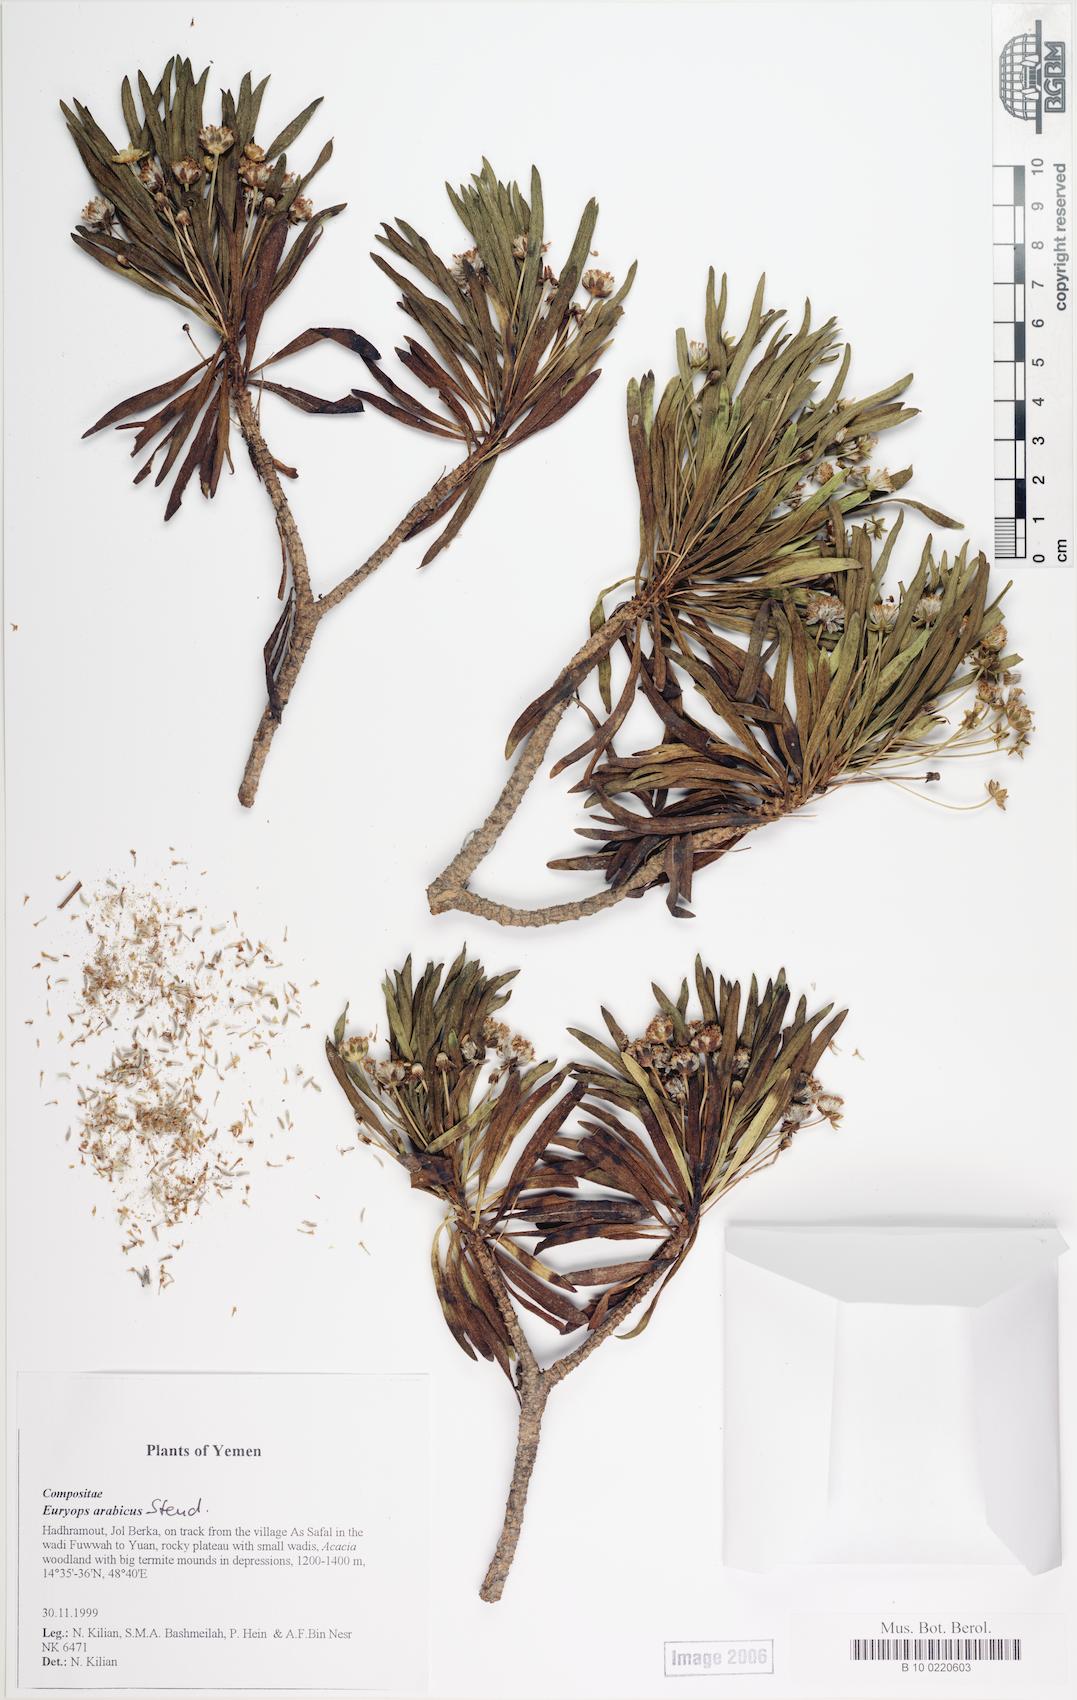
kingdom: Plantae
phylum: Tracheophyta
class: Magnoliopsida
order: Caryophyllales
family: Caryophyllaceae
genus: Stellaria
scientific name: Stellaria apetala
